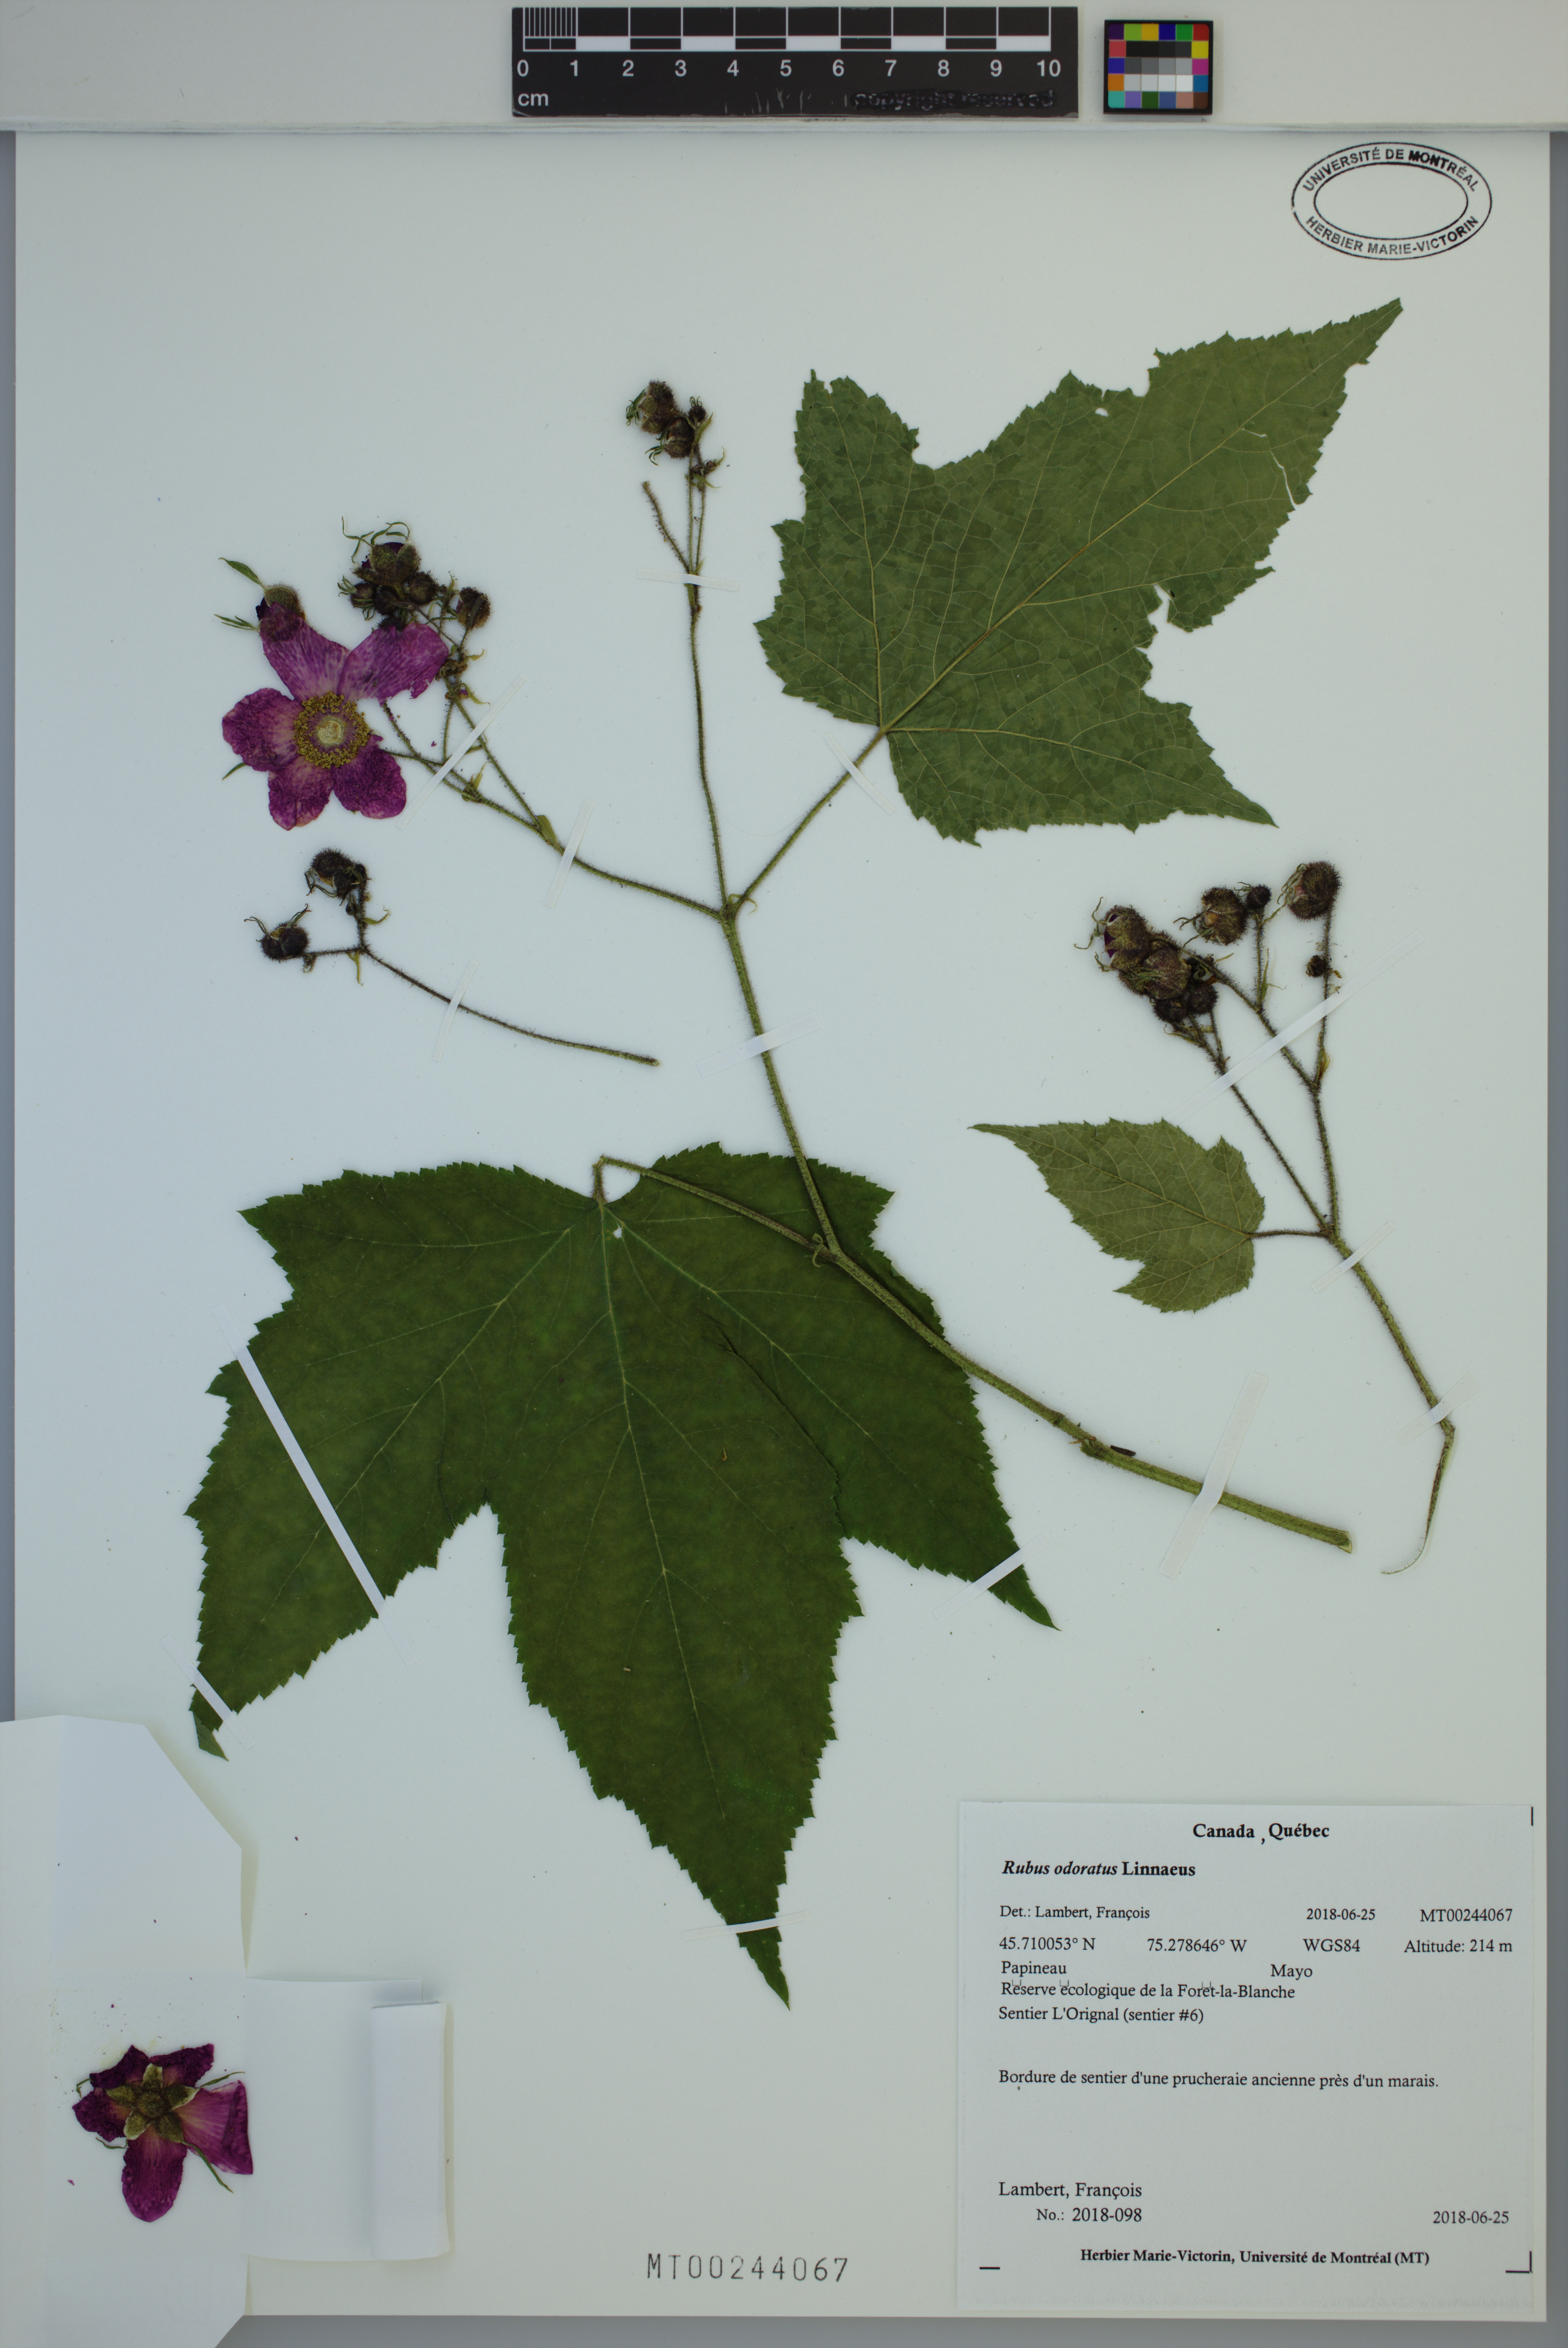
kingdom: Plantae
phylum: Tracheophyta
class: Magnoliopsida
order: Rosales
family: Rosaceae
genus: Rubus
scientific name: Rubus odoratus
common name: Purple-flowered raspberry
